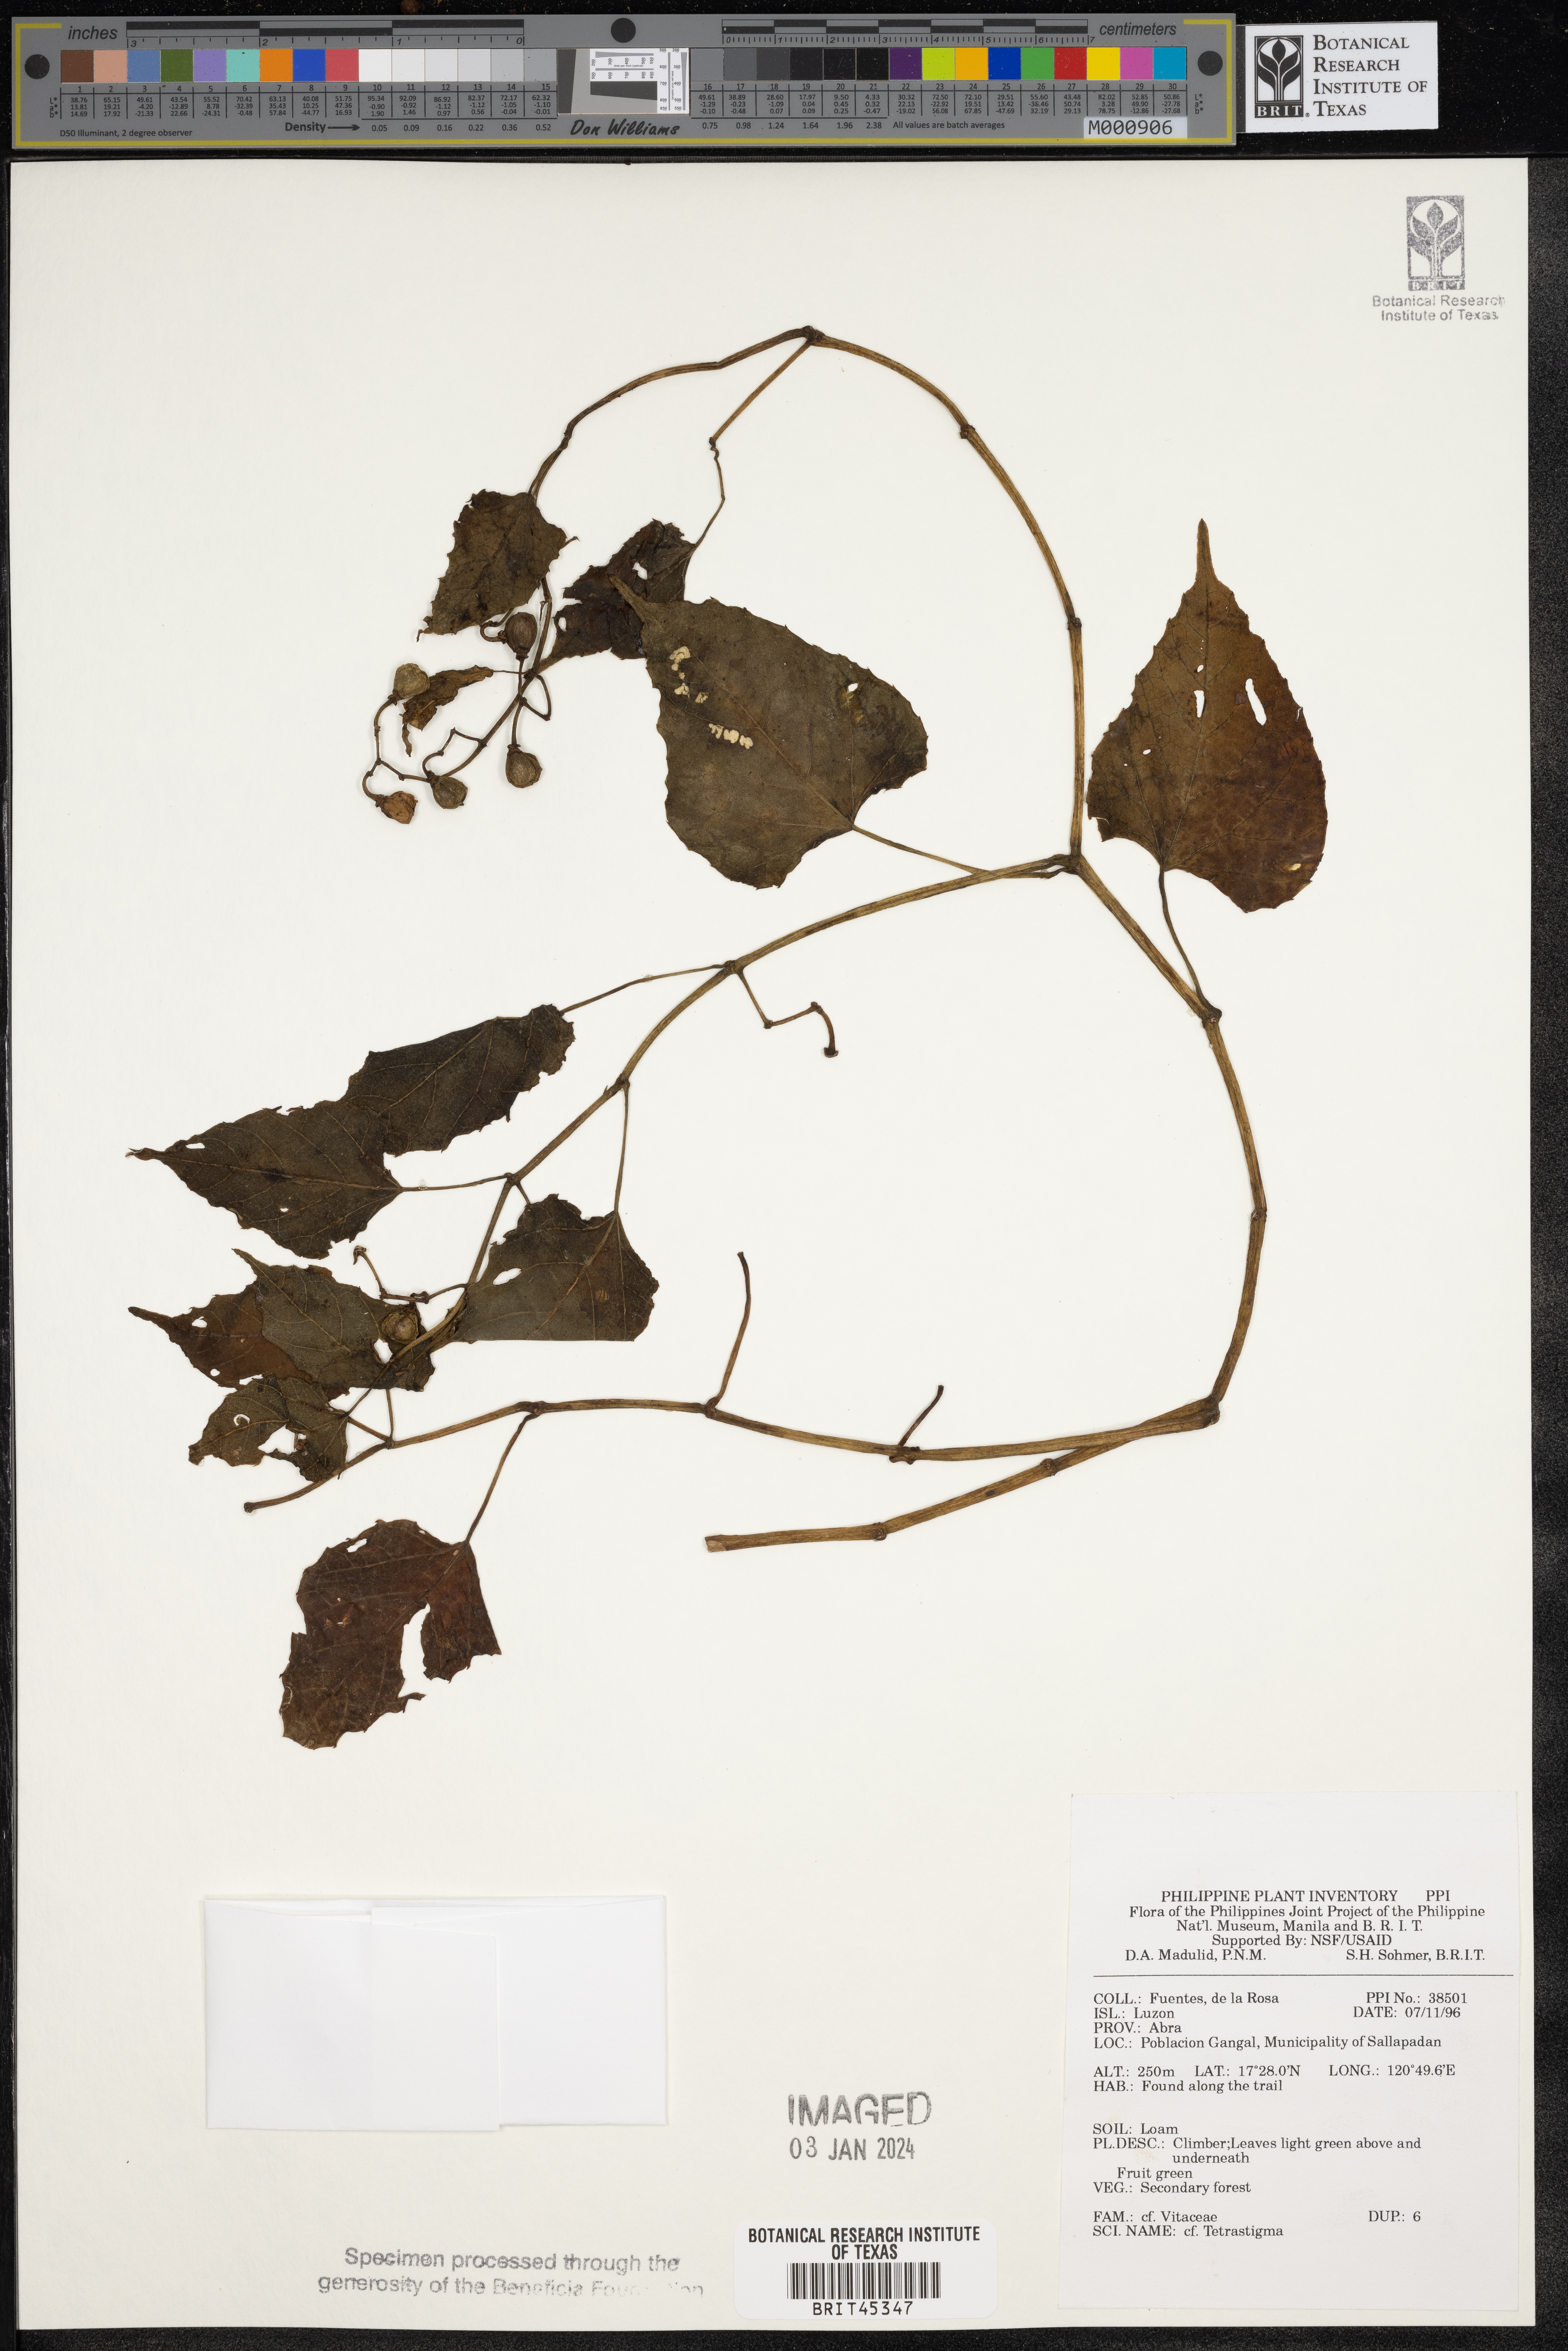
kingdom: Plantae
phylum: Tracheophyta
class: Magnoliopsida
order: Vitales
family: Vitaceae
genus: Tetrastigma
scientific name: Tetrastigma
